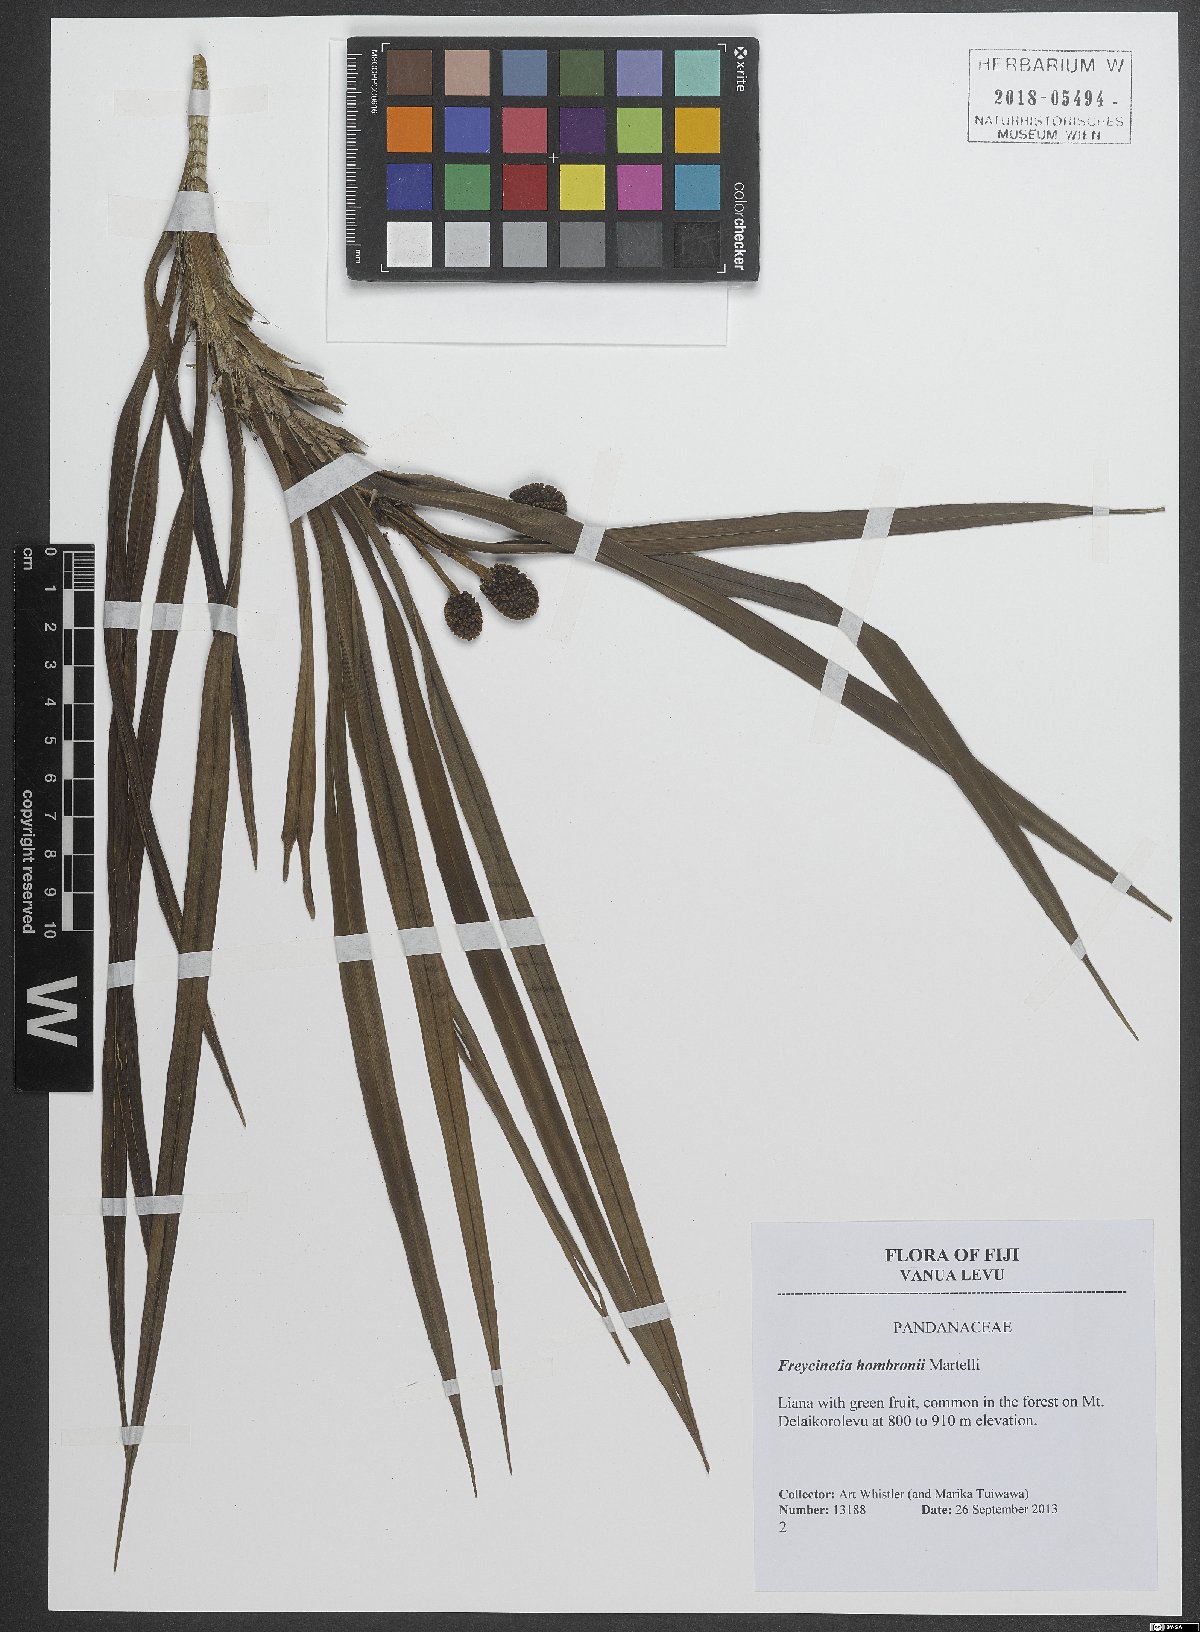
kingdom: Plantae
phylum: Tracheophyta
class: Liliopsida
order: Pandanales
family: Pandanaceae
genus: Freycinetia
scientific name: Freycinetia hombronii
